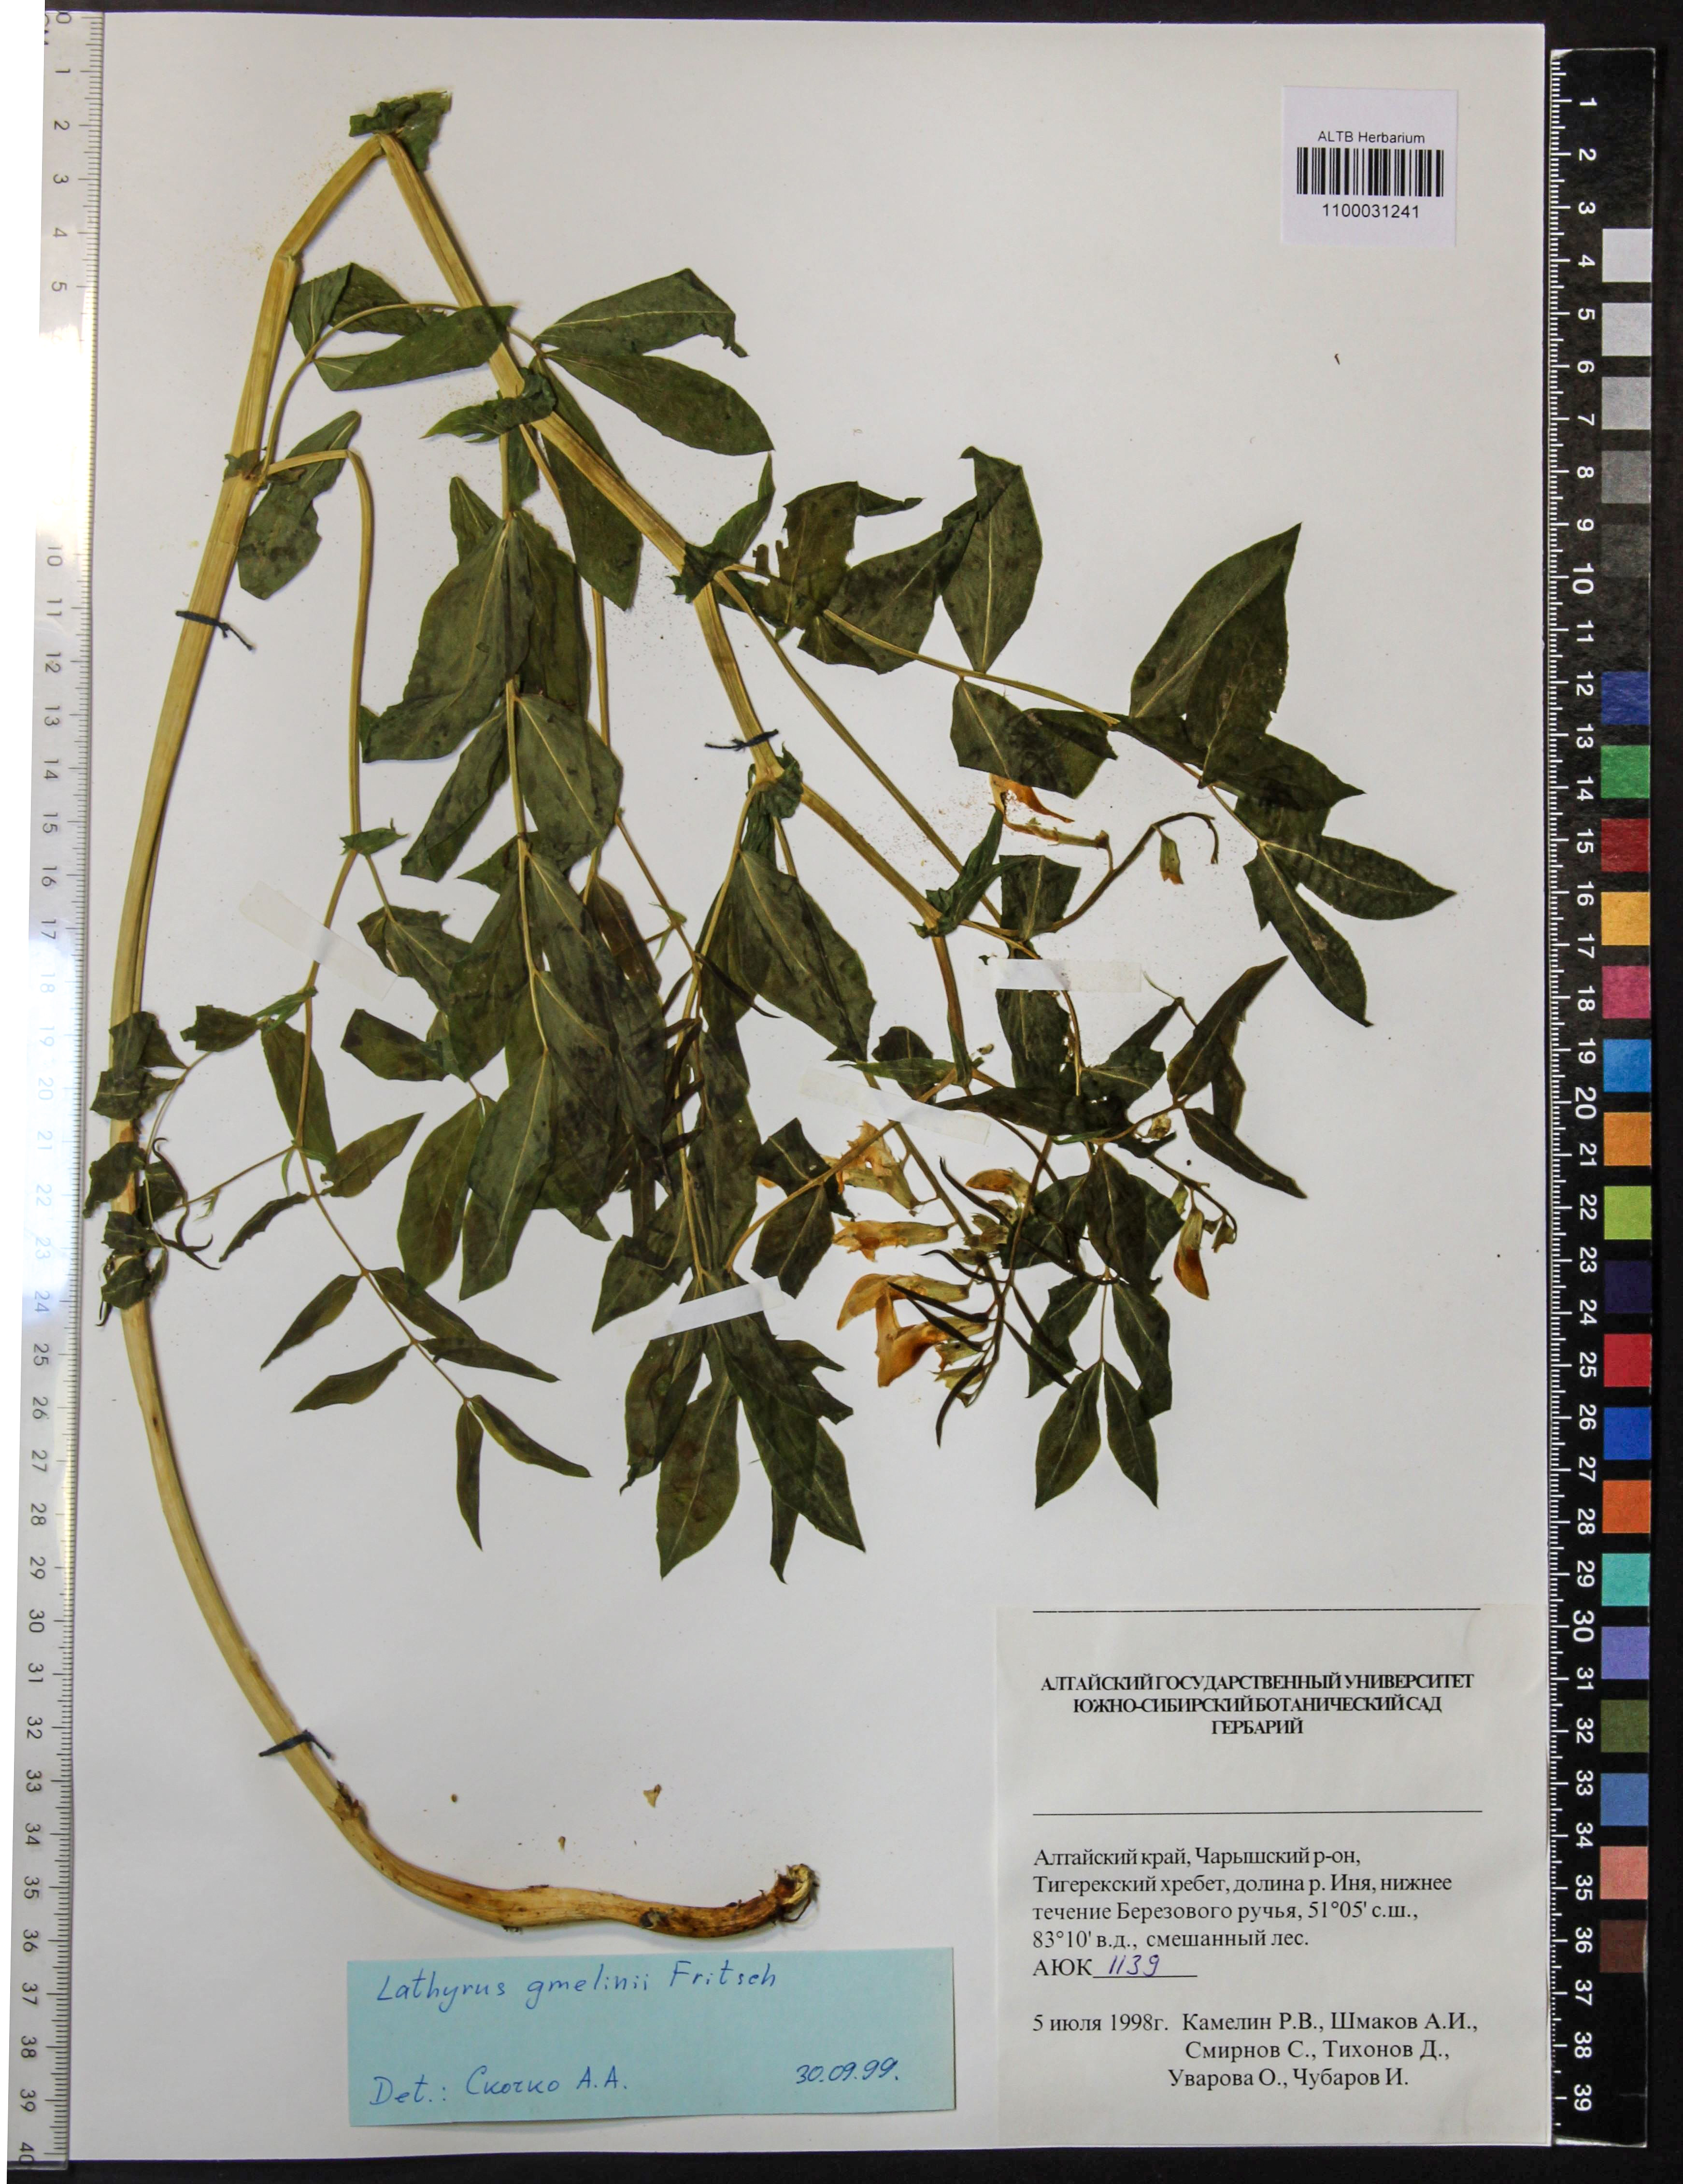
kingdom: Plantae
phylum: Tracheophyta
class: Magnoliopsida
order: Fabales
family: Fabaceae
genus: Lathyrus
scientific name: Lathyrus gmelinii
